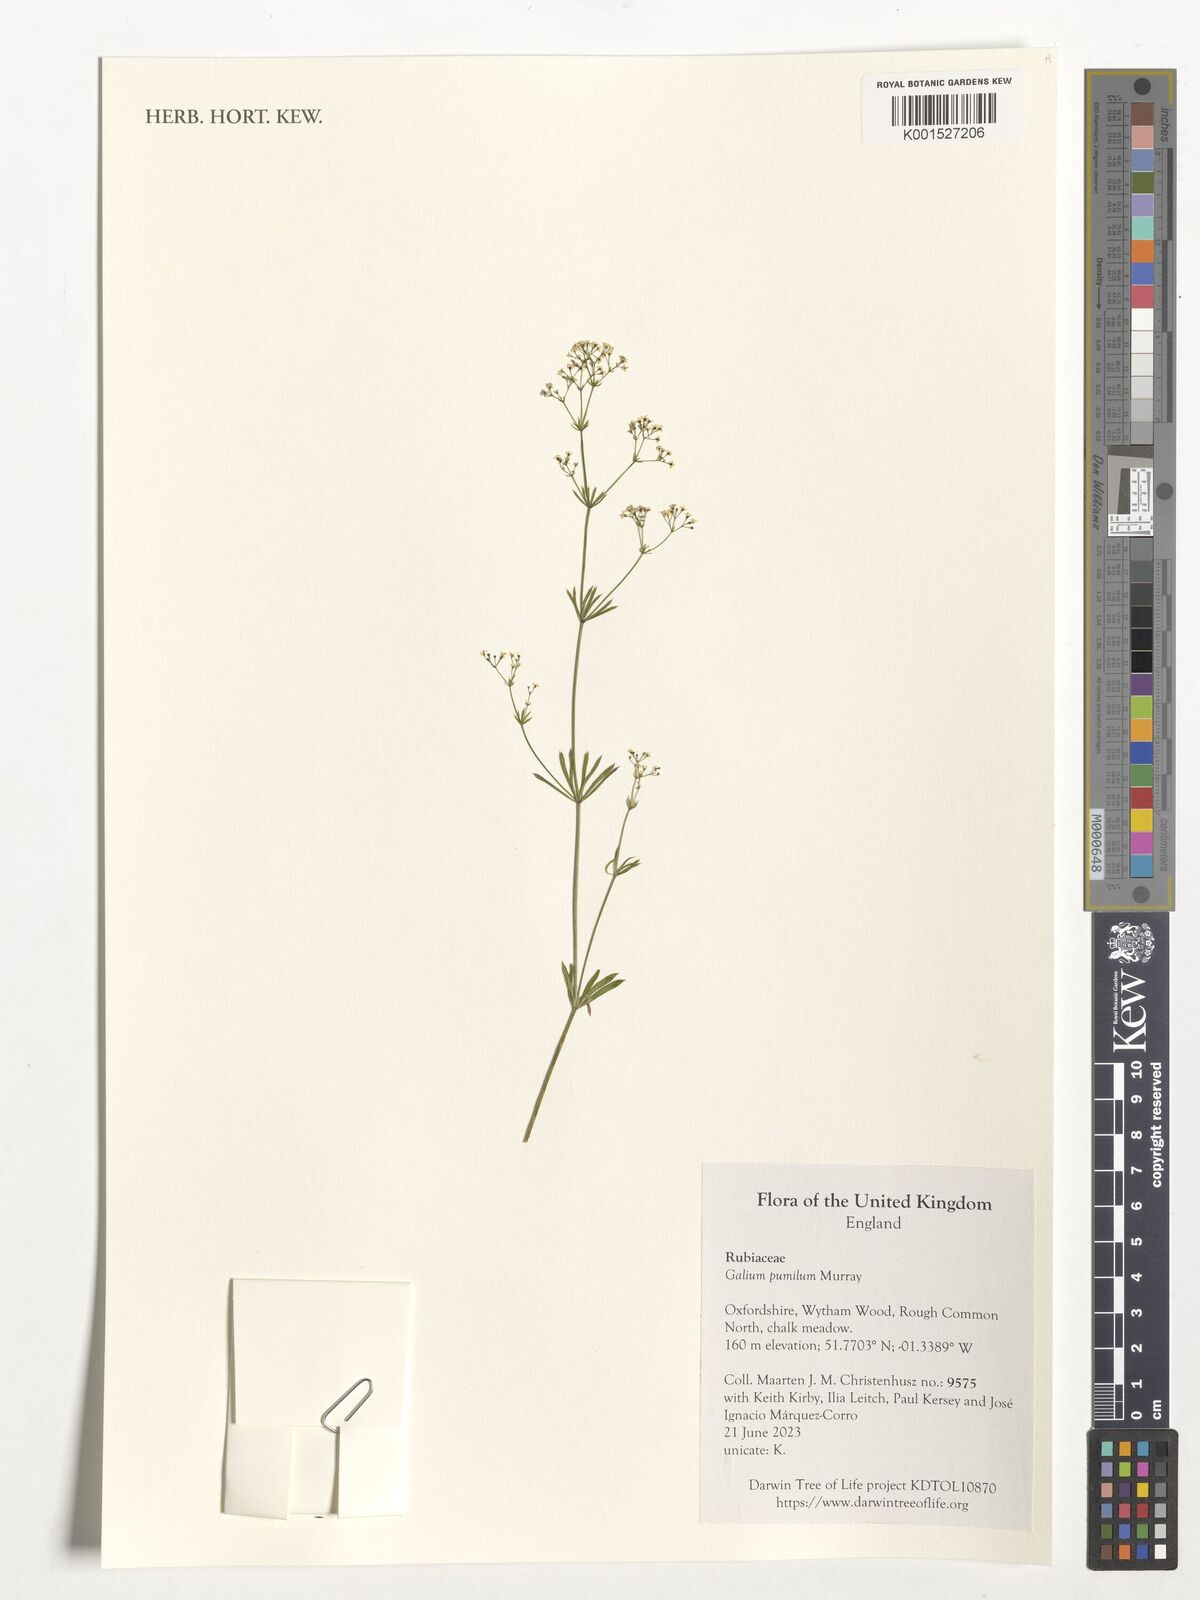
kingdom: Plantae
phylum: Tracheophyta
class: Magnoliopsida
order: Gentianales
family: Rubiaceae
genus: Galium
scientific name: Galium pumilum
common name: Slender bedstraw
